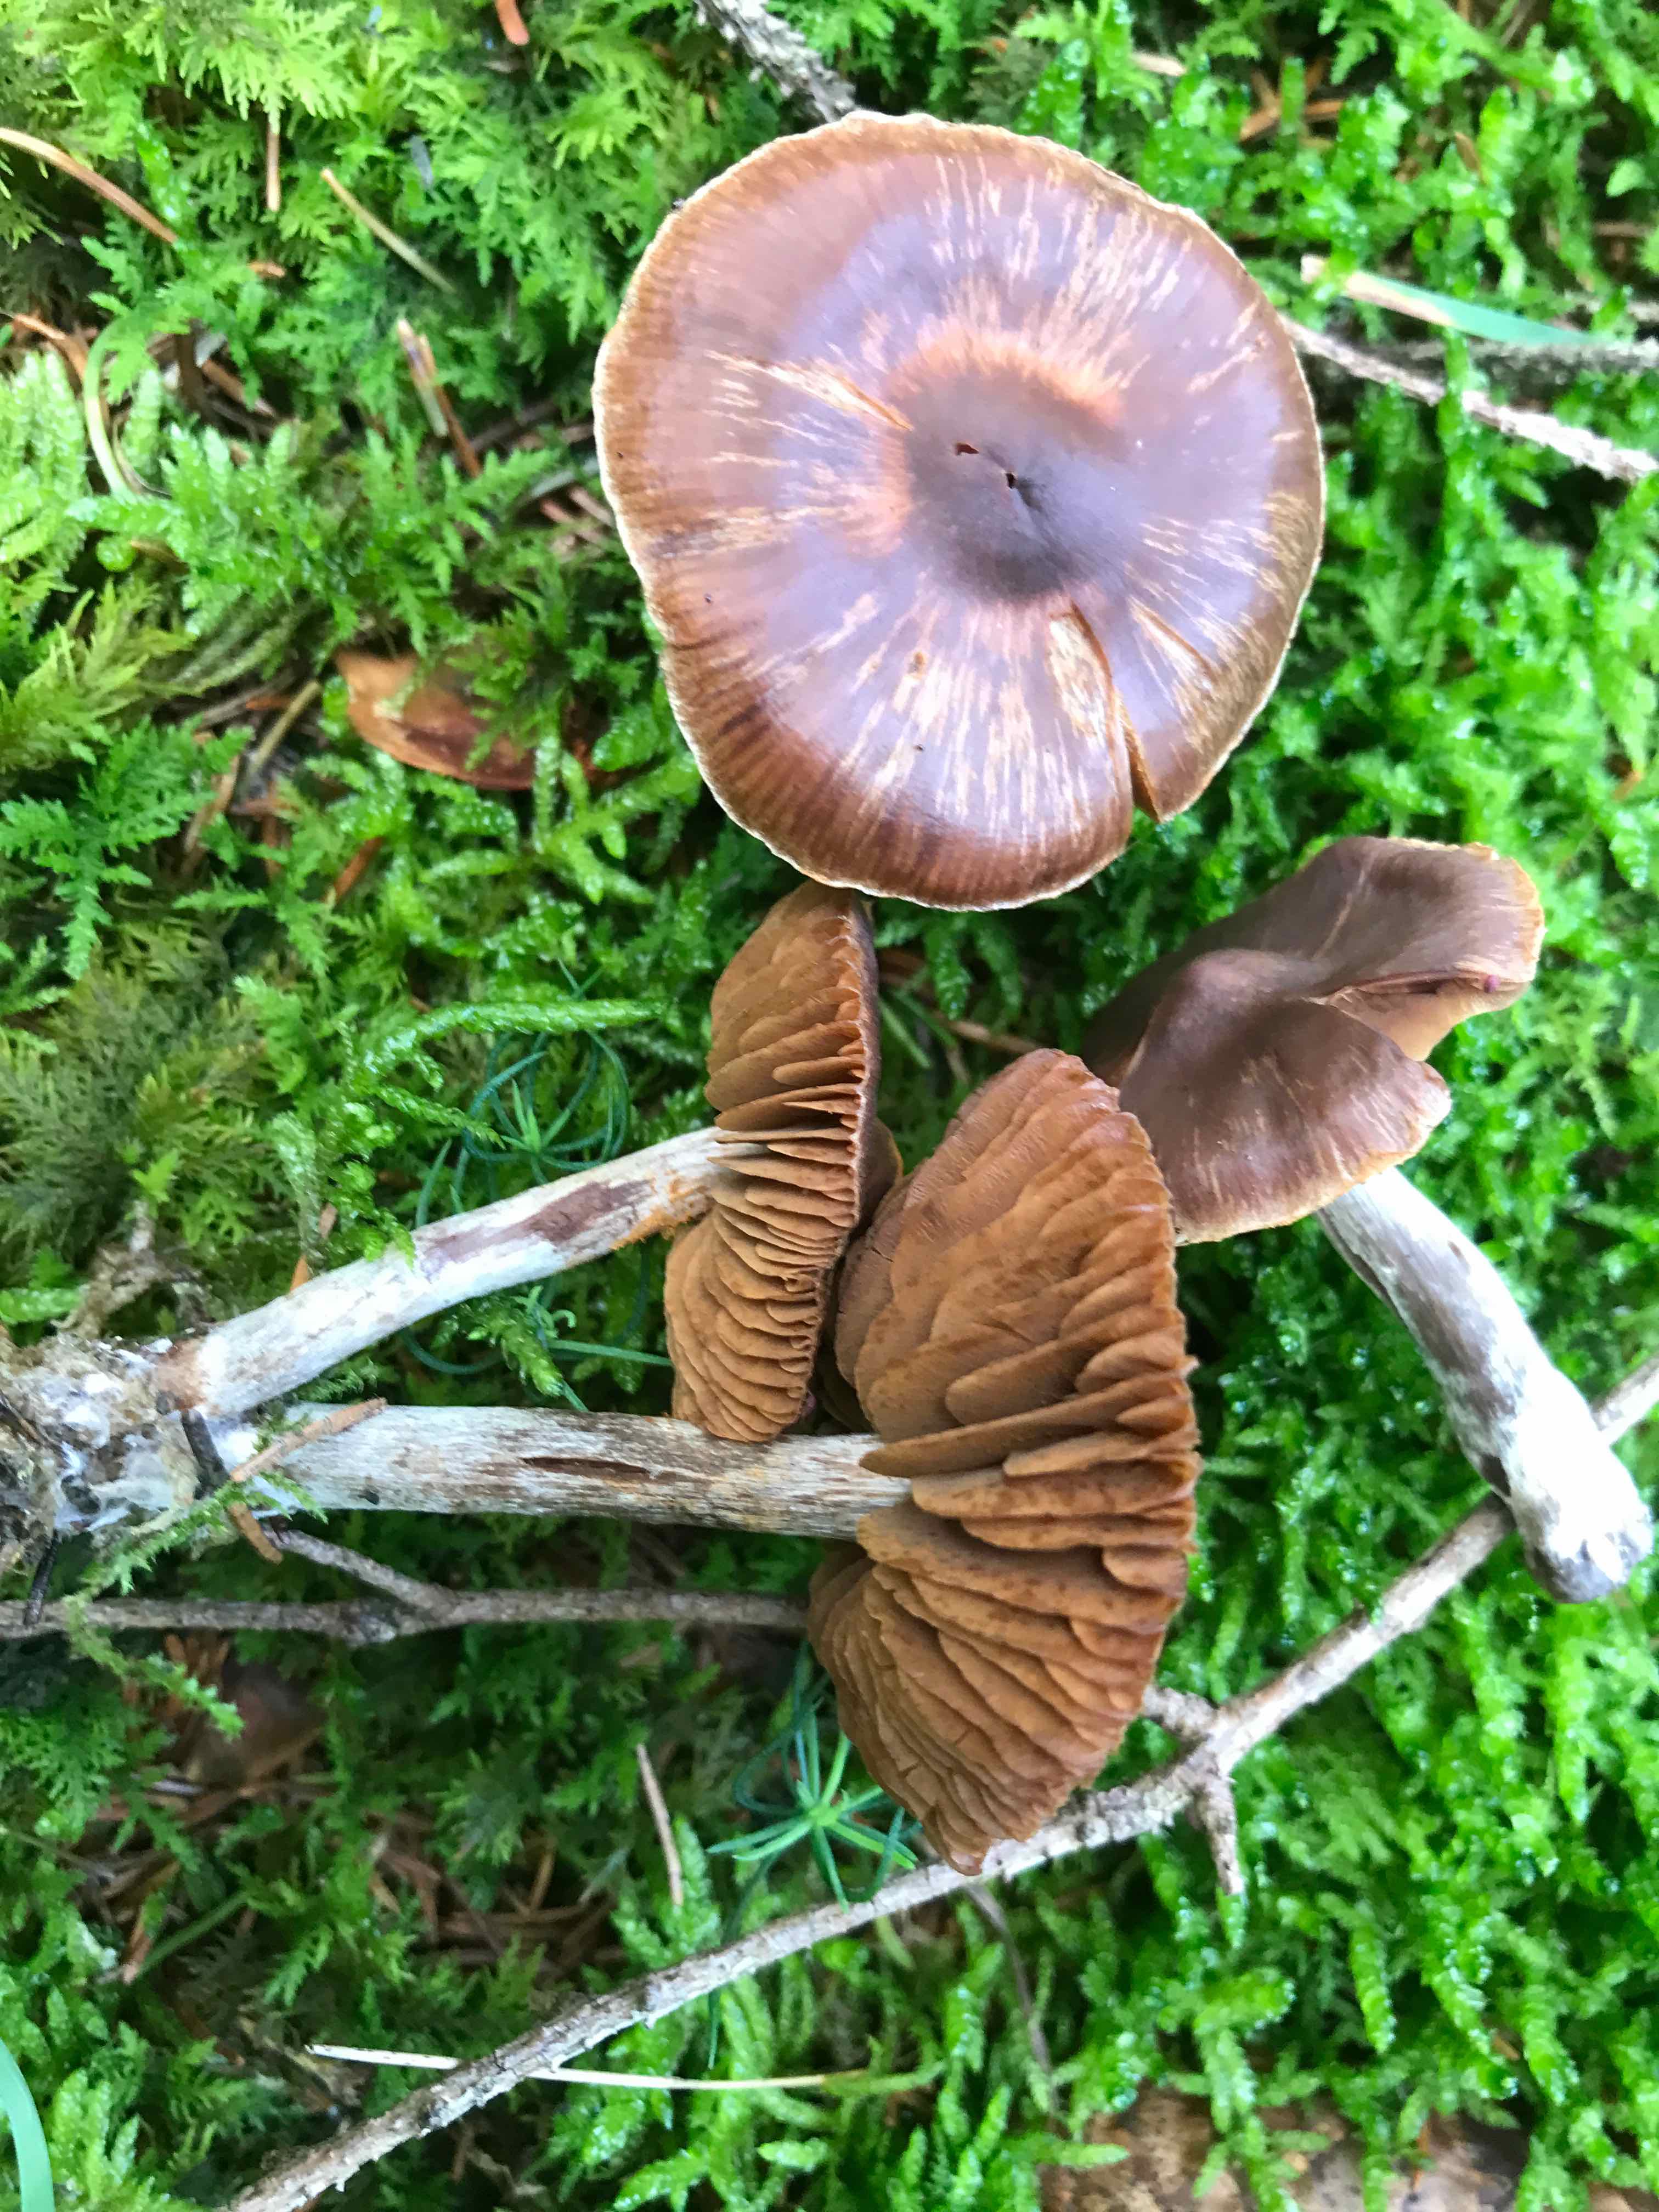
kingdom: Fungi
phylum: Basidiomycota
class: Agaricomycetes
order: Agaricales
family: Cortinariaceae
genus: Cortinarius
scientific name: Cortinarius
